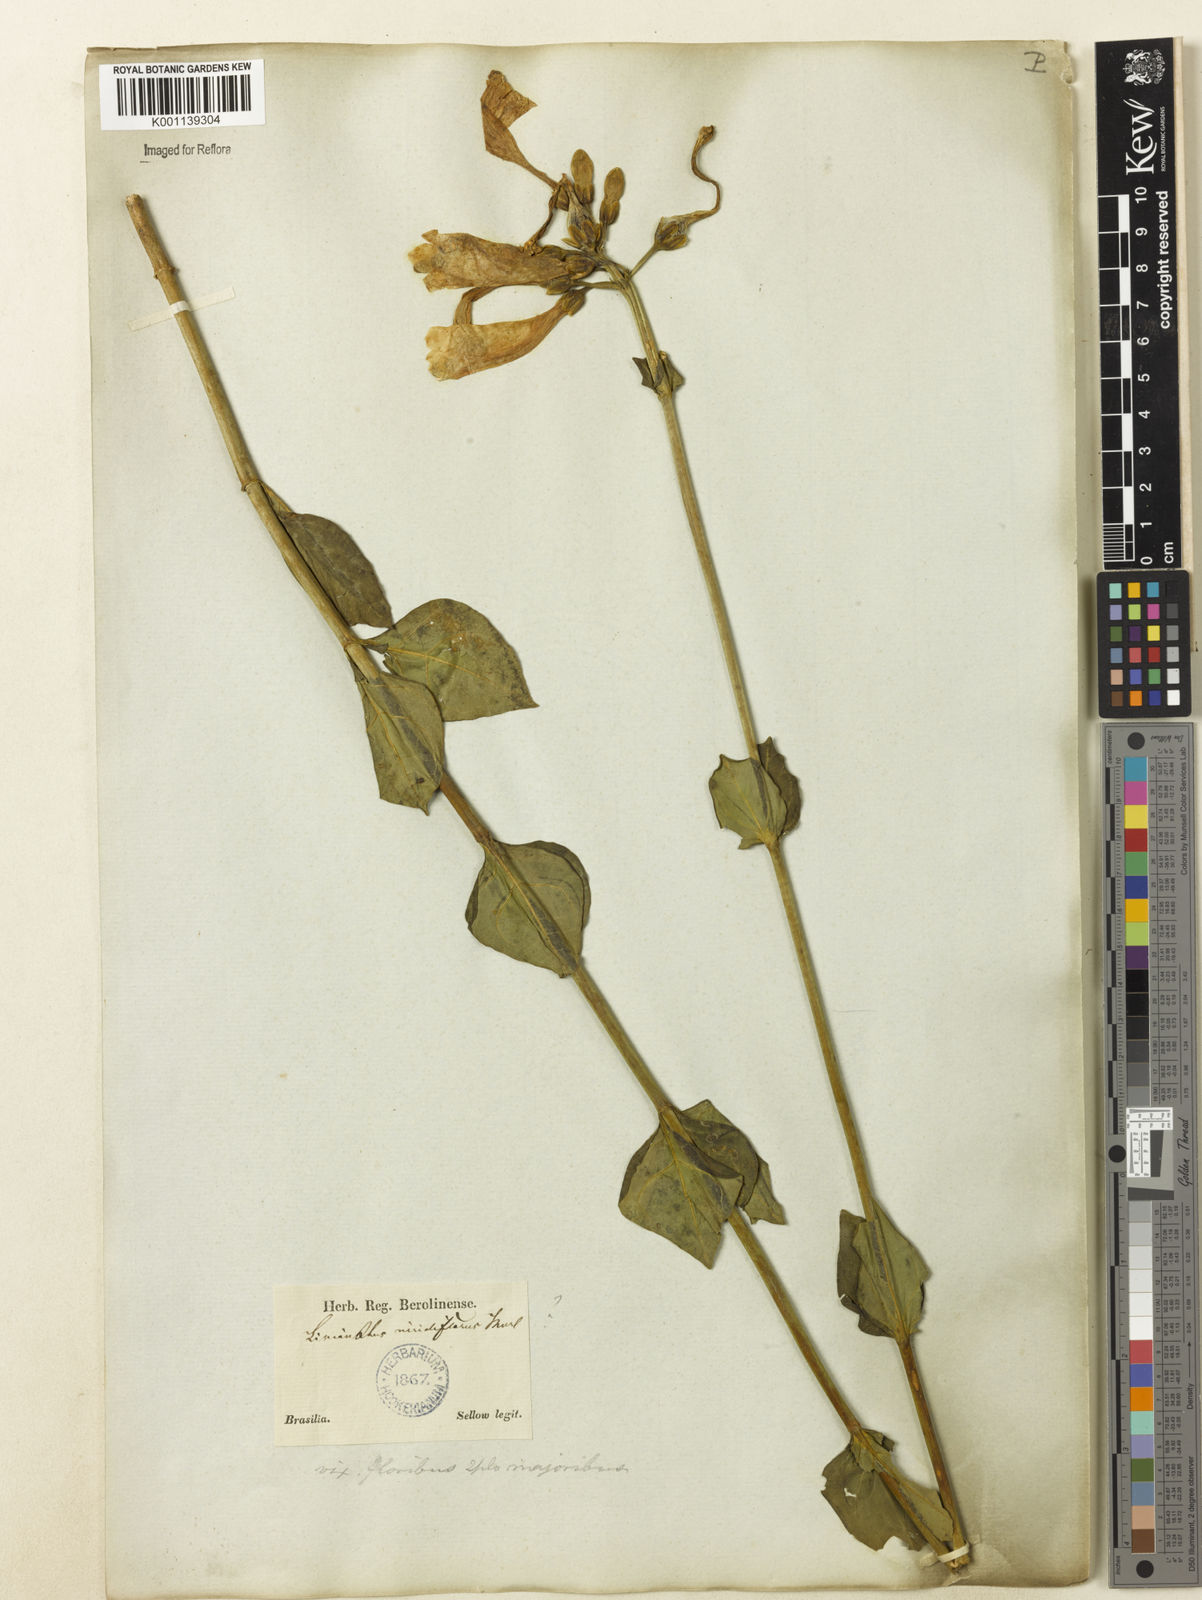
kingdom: Plantae
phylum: Tracheophyta
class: Magnoliopsida
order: Gentianales
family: Gentianaceae
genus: Chelonanthus
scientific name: Chelonanthus viridiflorus
